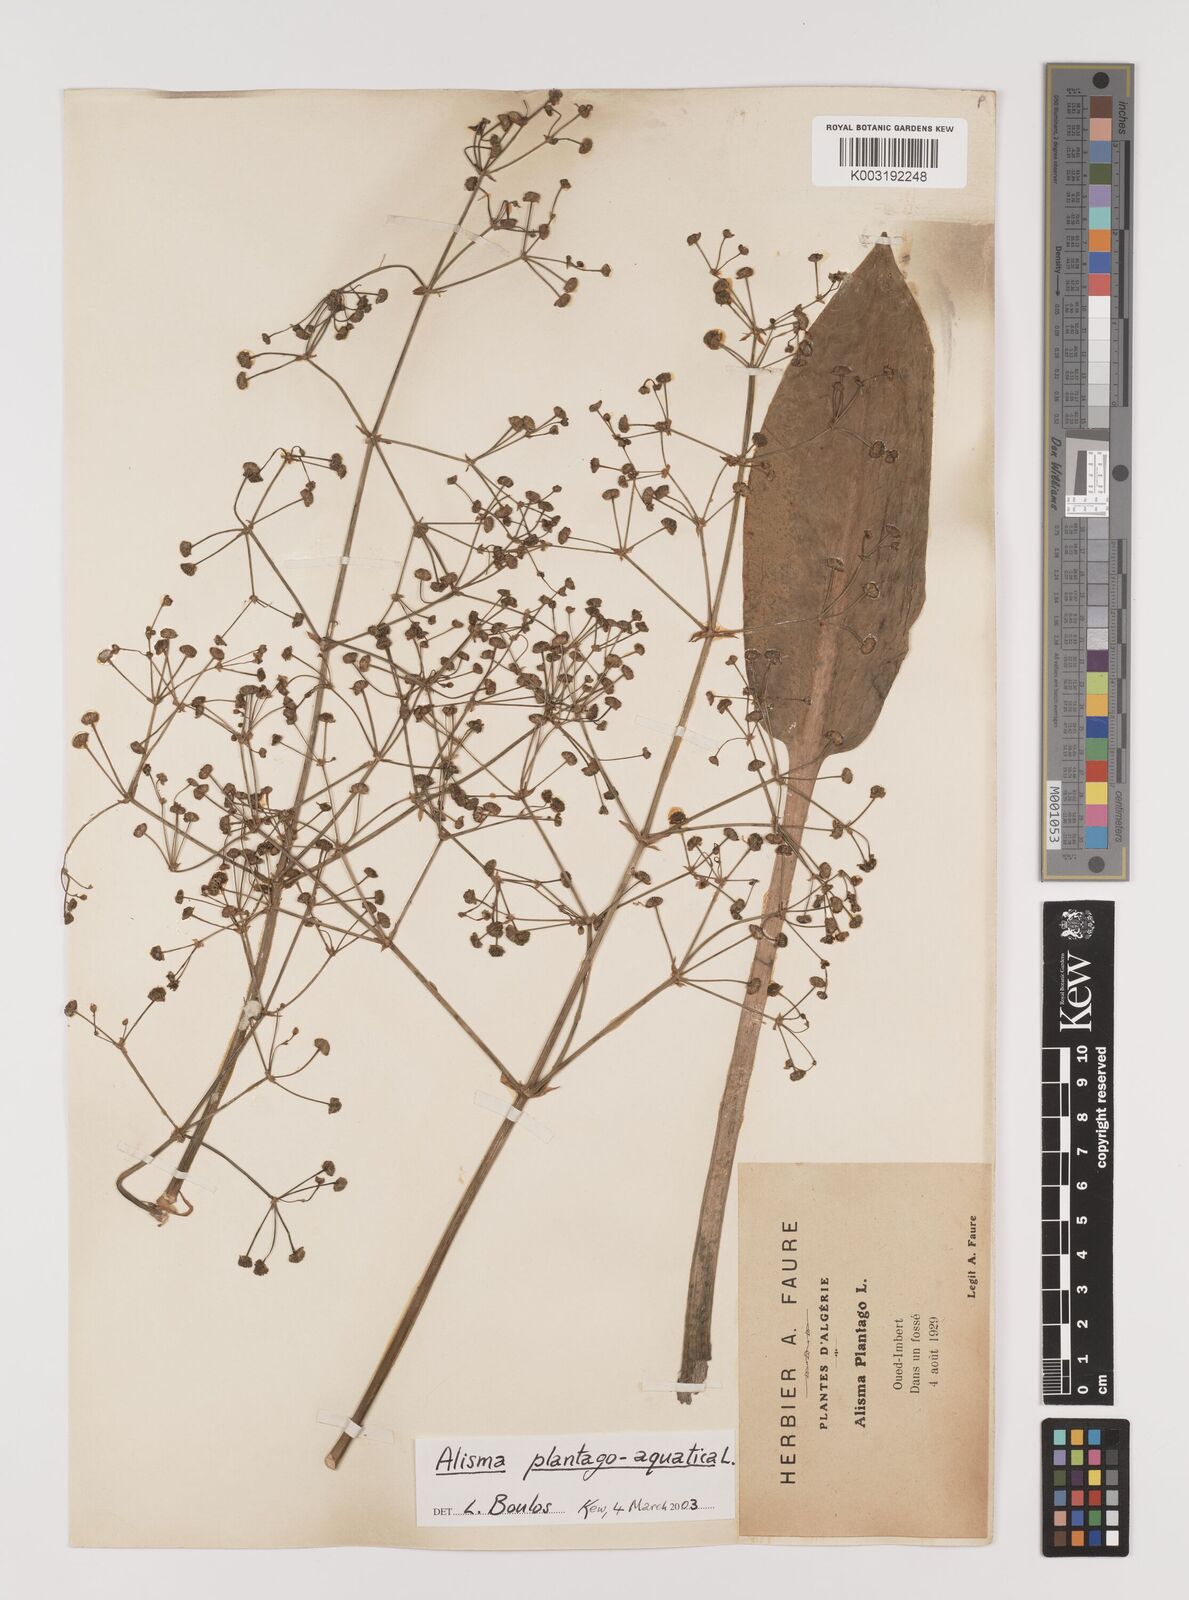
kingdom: Plantae
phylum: Tracheophyta
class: Liliopsida
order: Alismatales
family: Alismataceae
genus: Alisma
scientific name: Alisma plantago-aquatica
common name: Water-plantain
